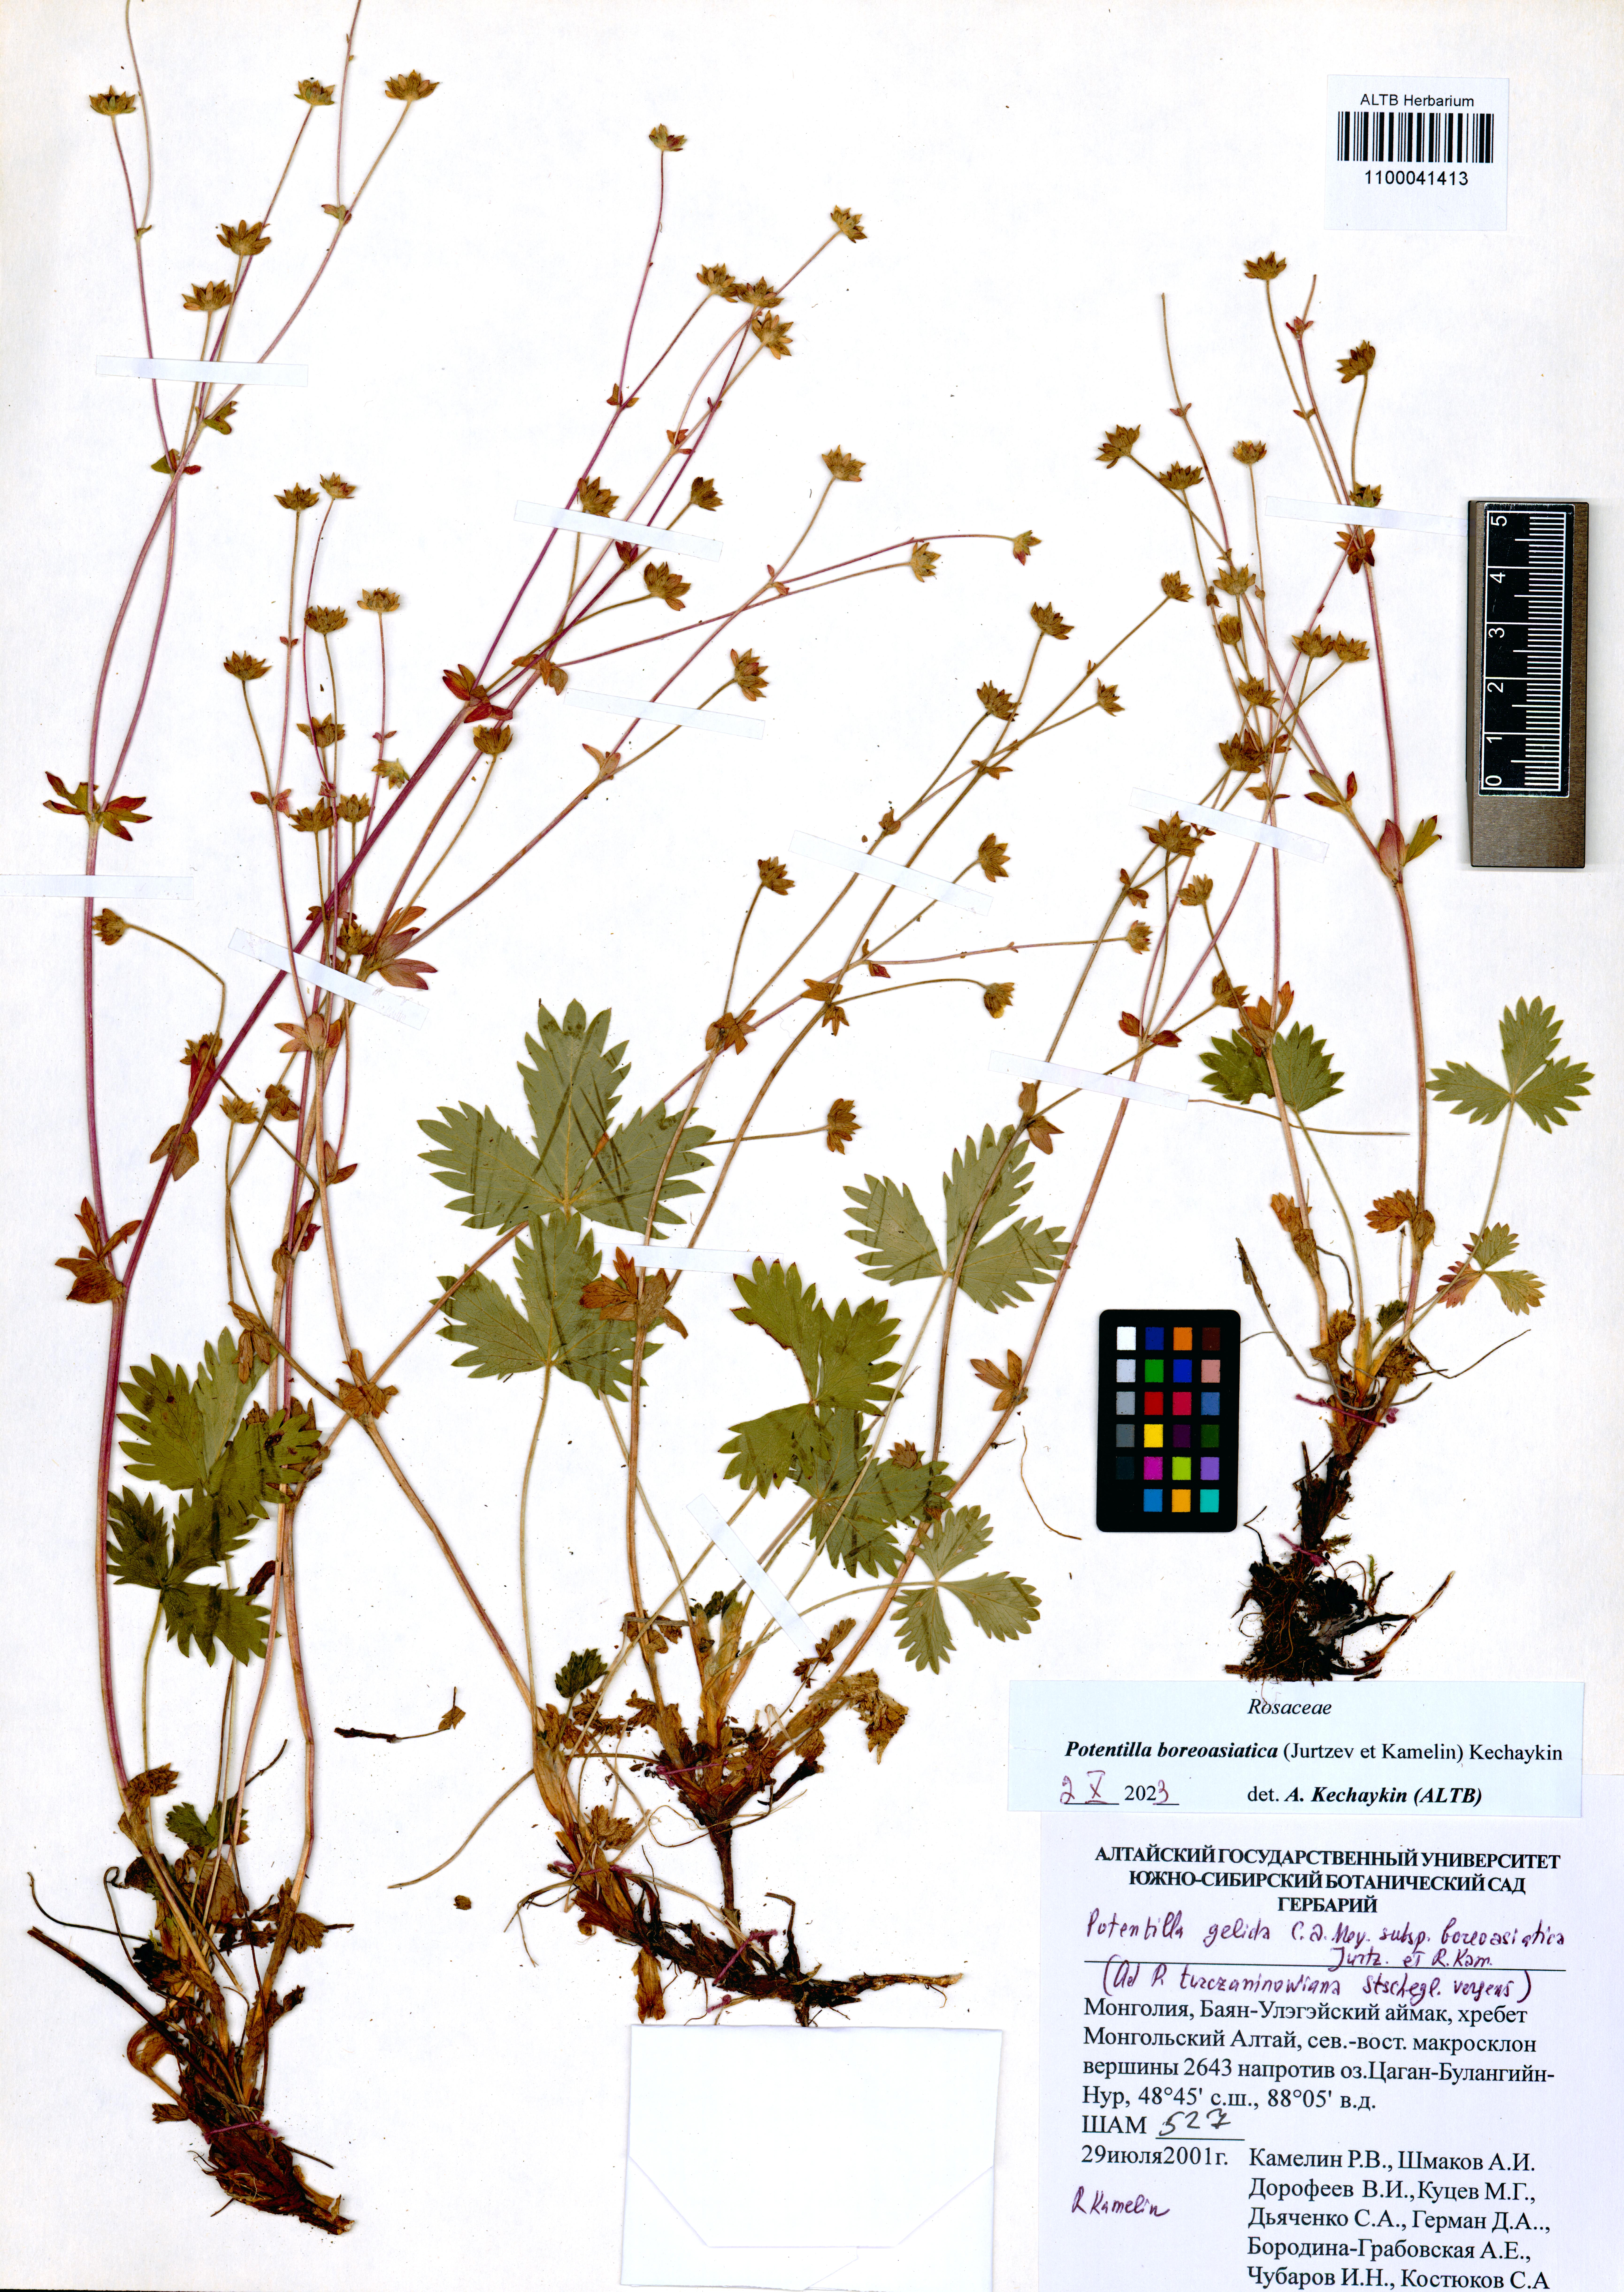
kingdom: Plantae
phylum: Tracheophyta
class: Magnoliopsida
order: Rosales
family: Rosaceae
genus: Potentilla
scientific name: Potentilla
